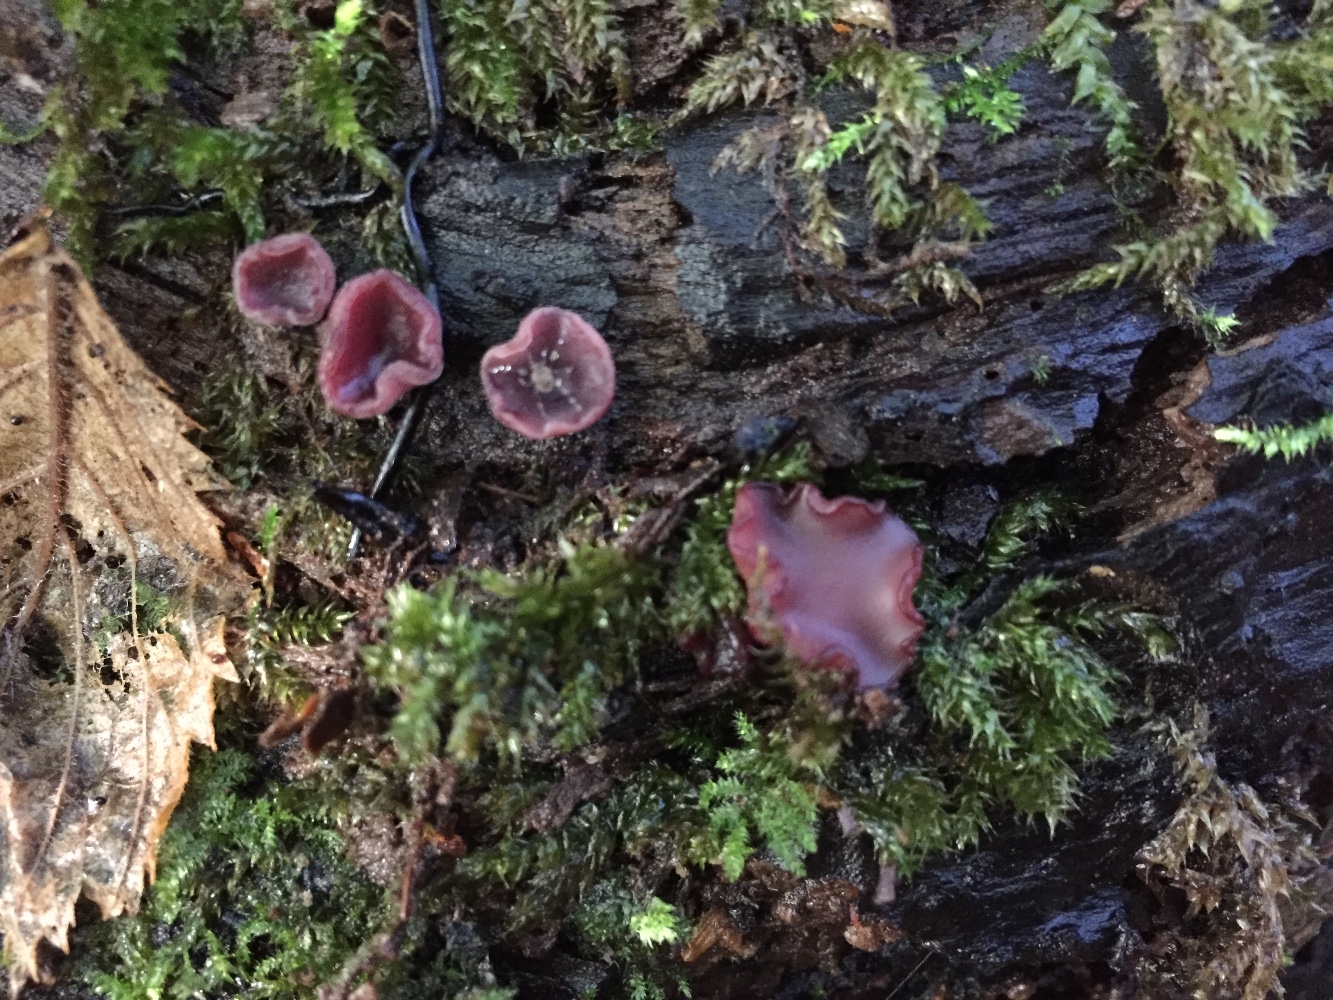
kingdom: Fungi
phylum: Ascomycota
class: Leotiomycetes
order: Helotiales
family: Gelatinodiscaceae
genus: Ascocoryne
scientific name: Ascocoryne cylichnium
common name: stor sejskive
